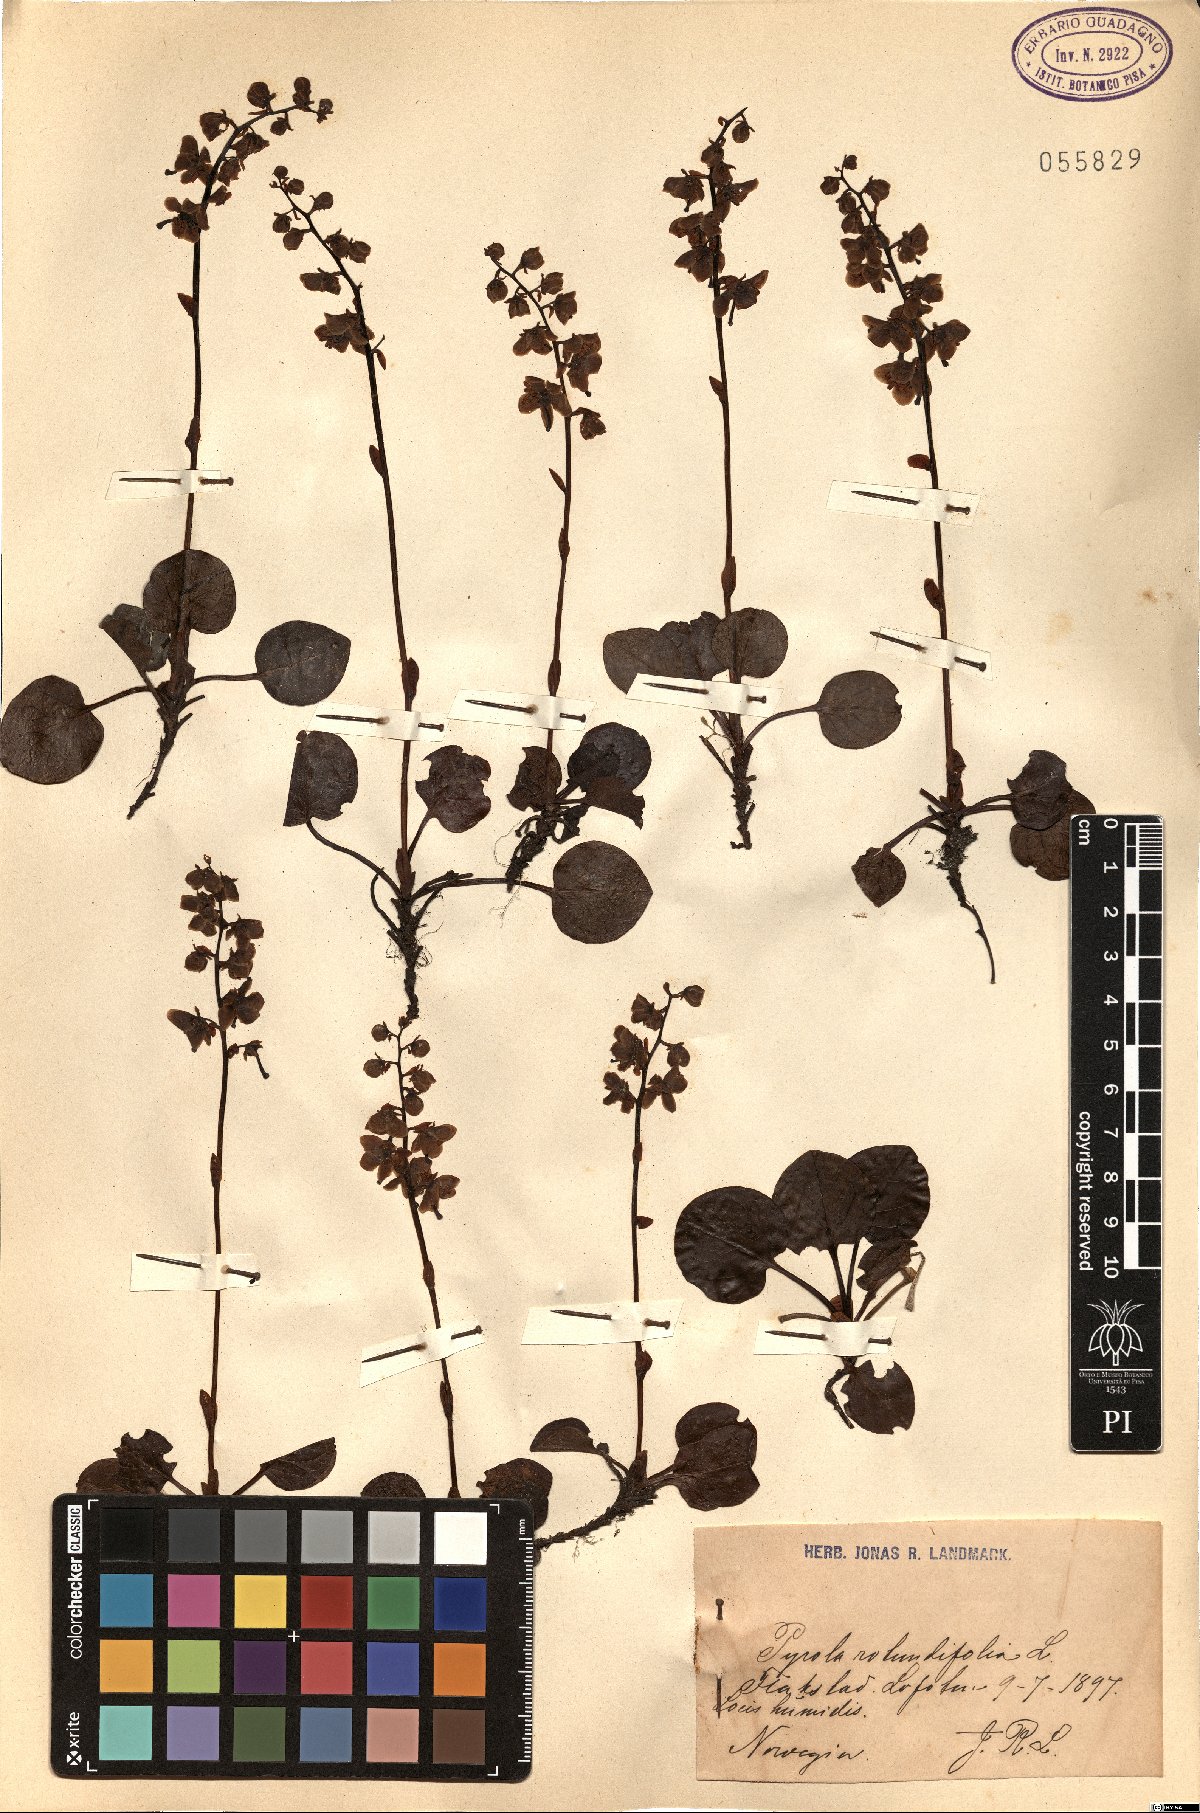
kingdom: Plantae
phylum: Tracheophyta
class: Magnoliopsida
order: Ericales
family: Ericaceae
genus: Pyrola
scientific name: Pyrola rotundifolia
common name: Round-leaved wintergreen
